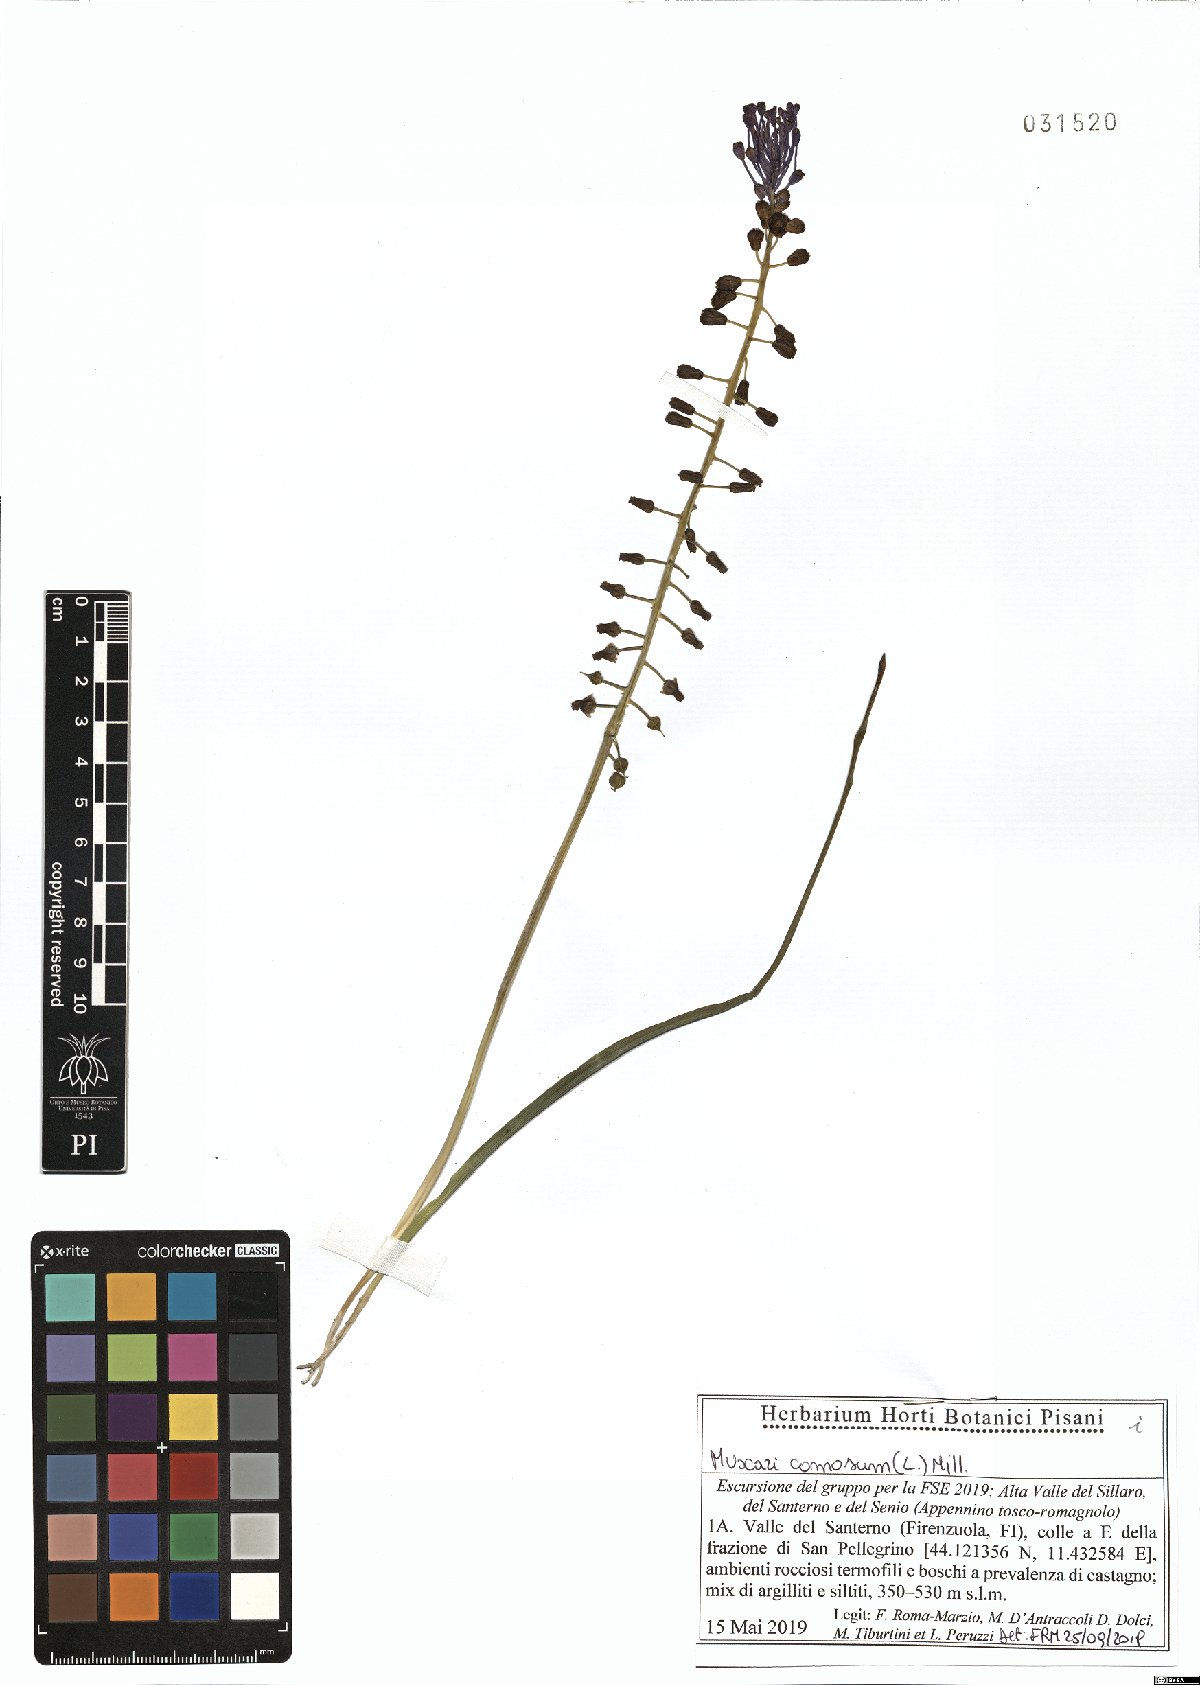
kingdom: Plantae
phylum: Tracheophyta
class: Liliopsida
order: Asparagales
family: Asparagaceae
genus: Muscari
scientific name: Muscari comosum
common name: Tassel hyacinth
